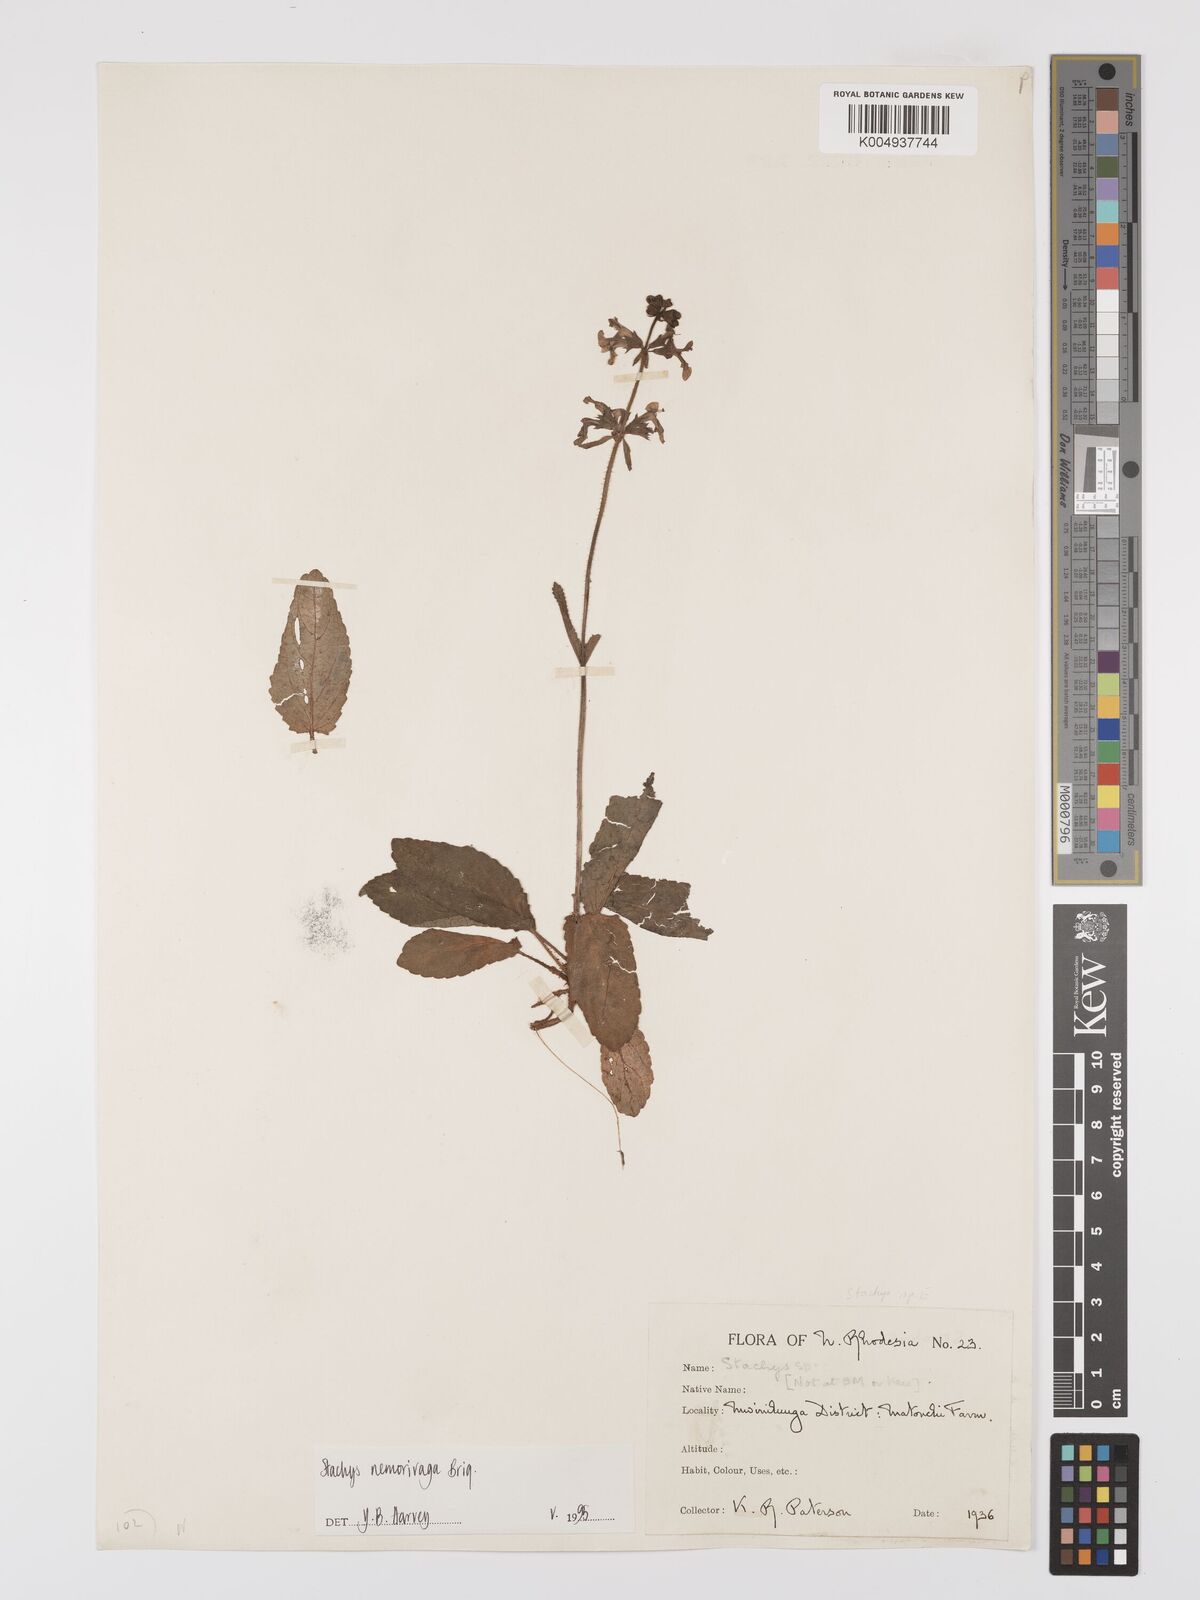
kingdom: Plantae
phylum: Tracheophyta
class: Magnoliopsida
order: Lamiales
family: Lamiaceae
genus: Stachys
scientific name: Stachys nemorivaga
